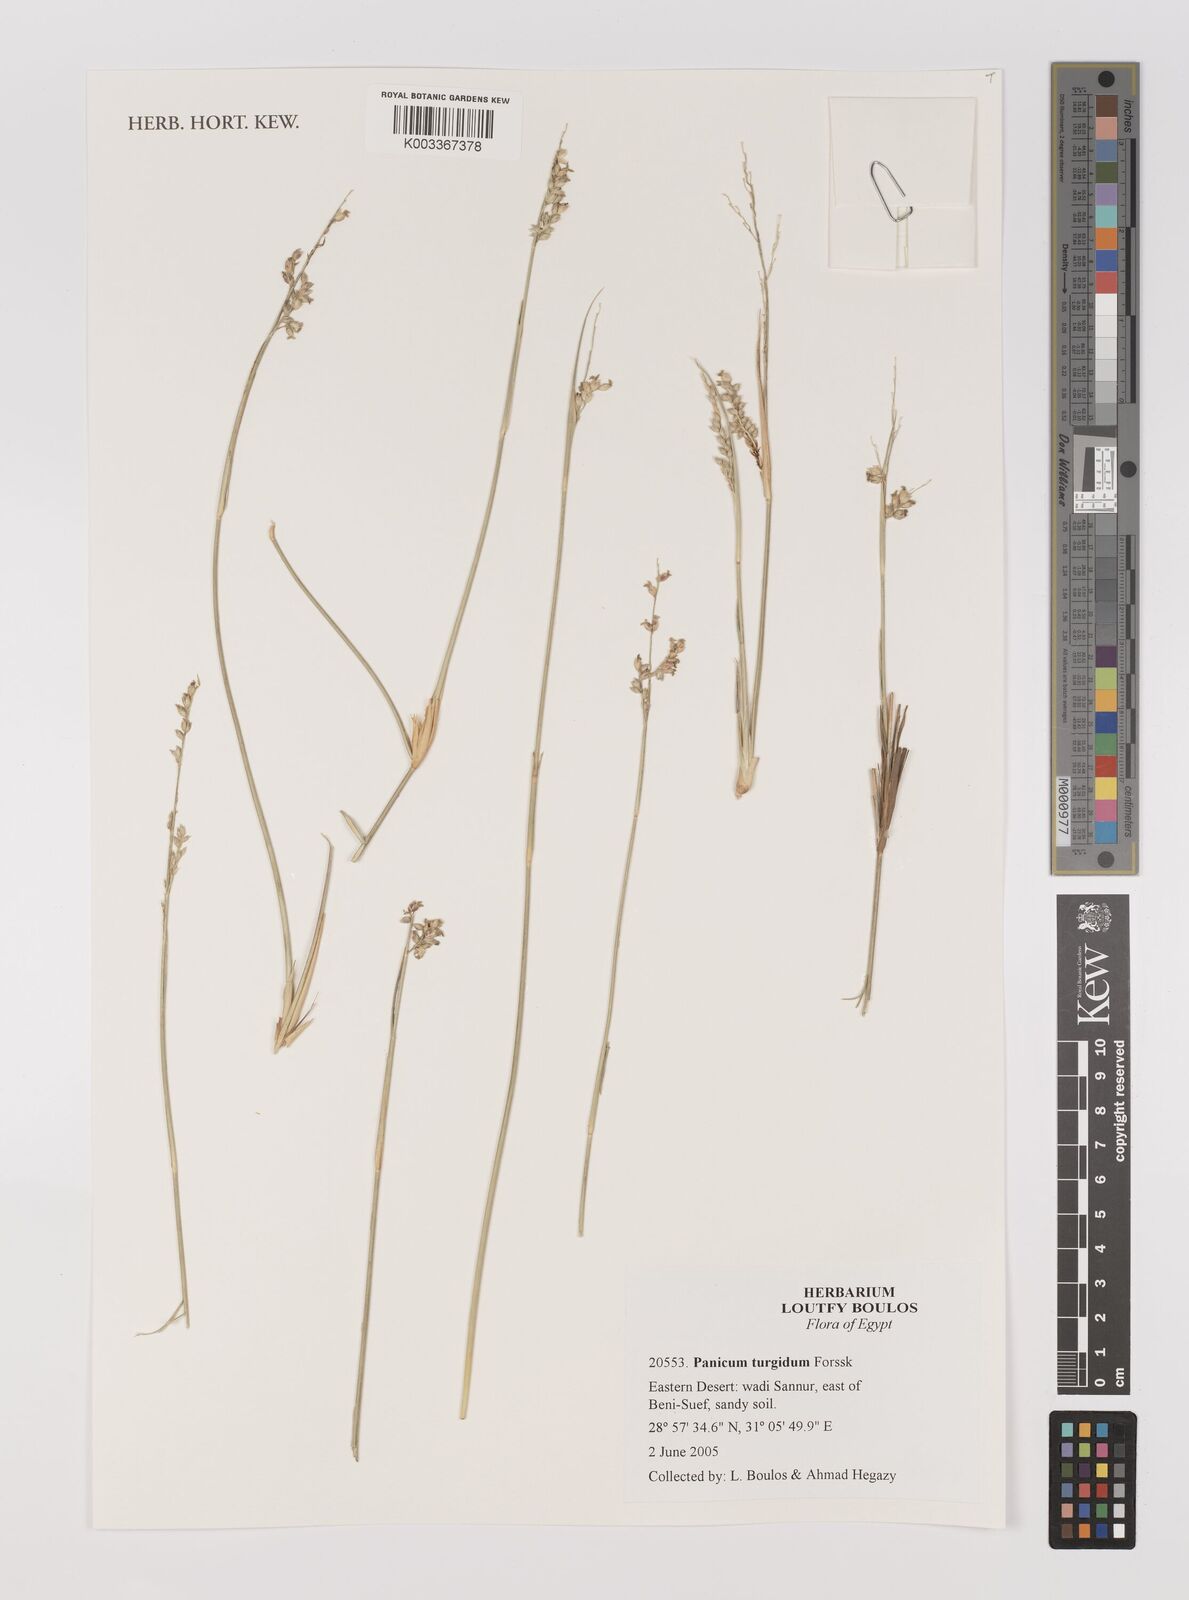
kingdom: Plantae
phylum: Tracheophyta
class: Liliopsida
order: Poales
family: Poaceae
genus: Panicum
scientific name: Panicum turgidum
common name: Desert grass
